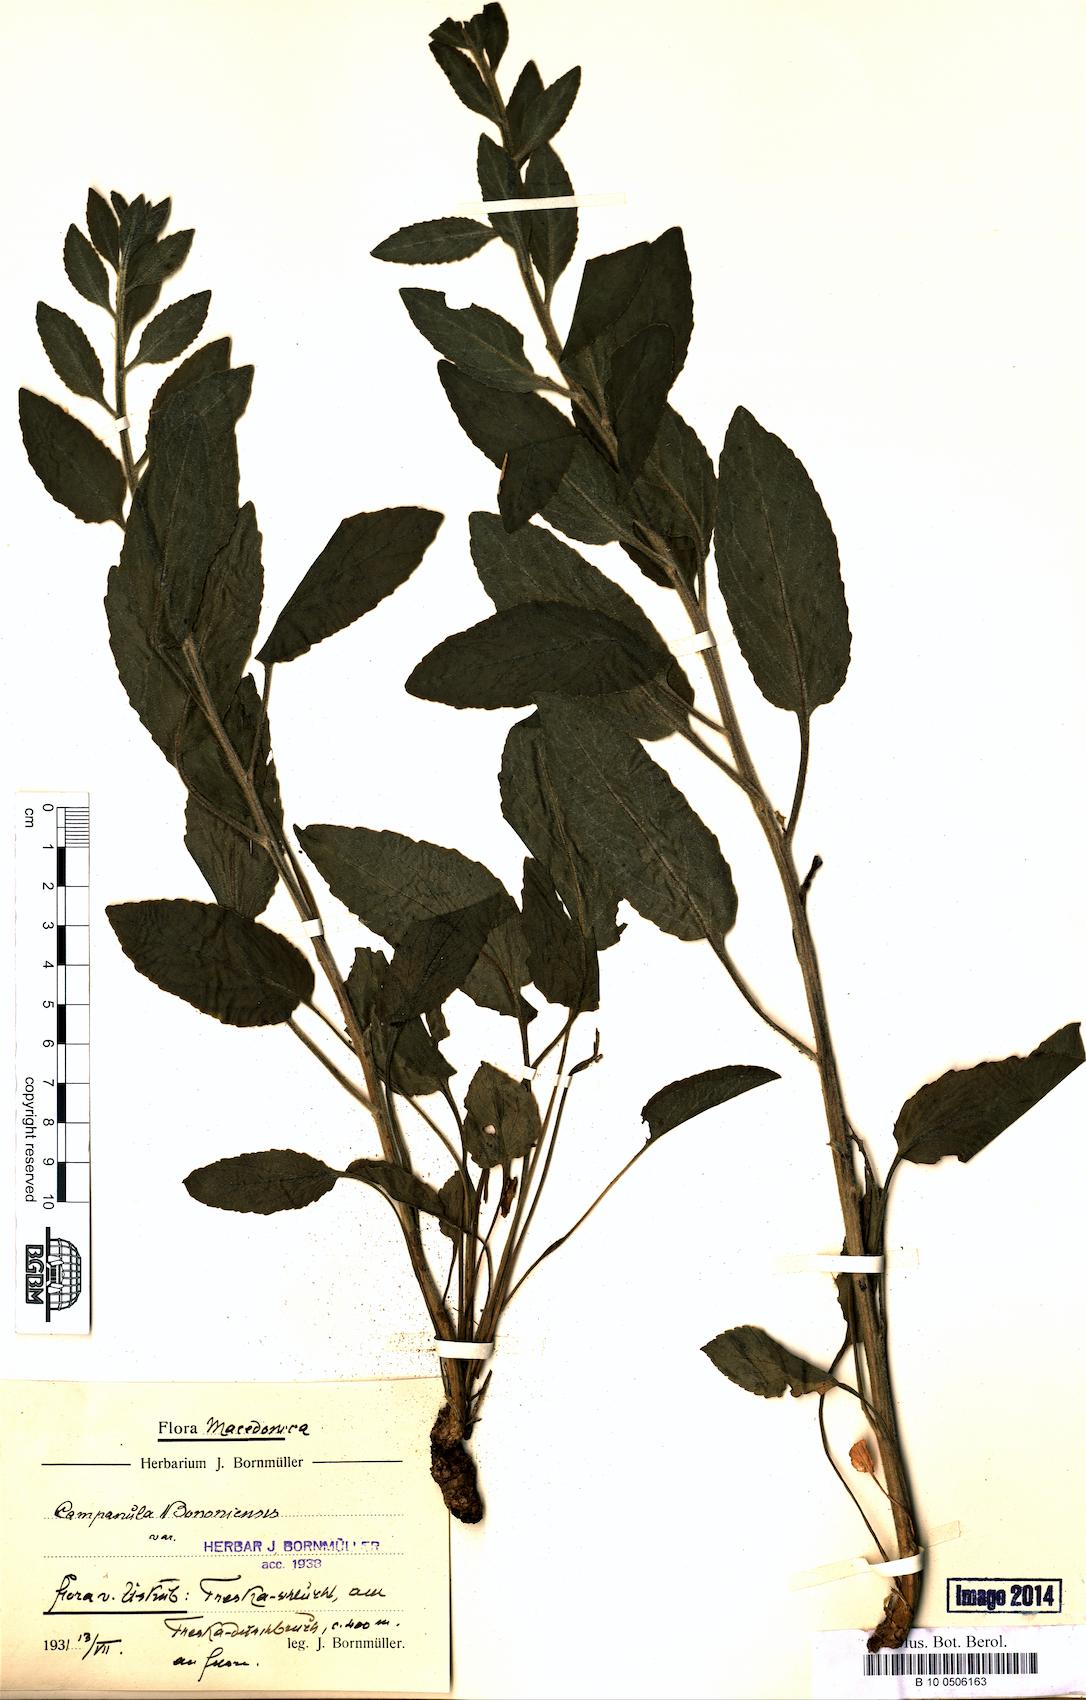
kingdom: Plantae
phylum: Tracheophyta
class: Magnoliopsida
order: Asterales
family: Campanulaceae
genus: Campanula
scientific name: Campanula bononiensis
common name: Pale bellflower
